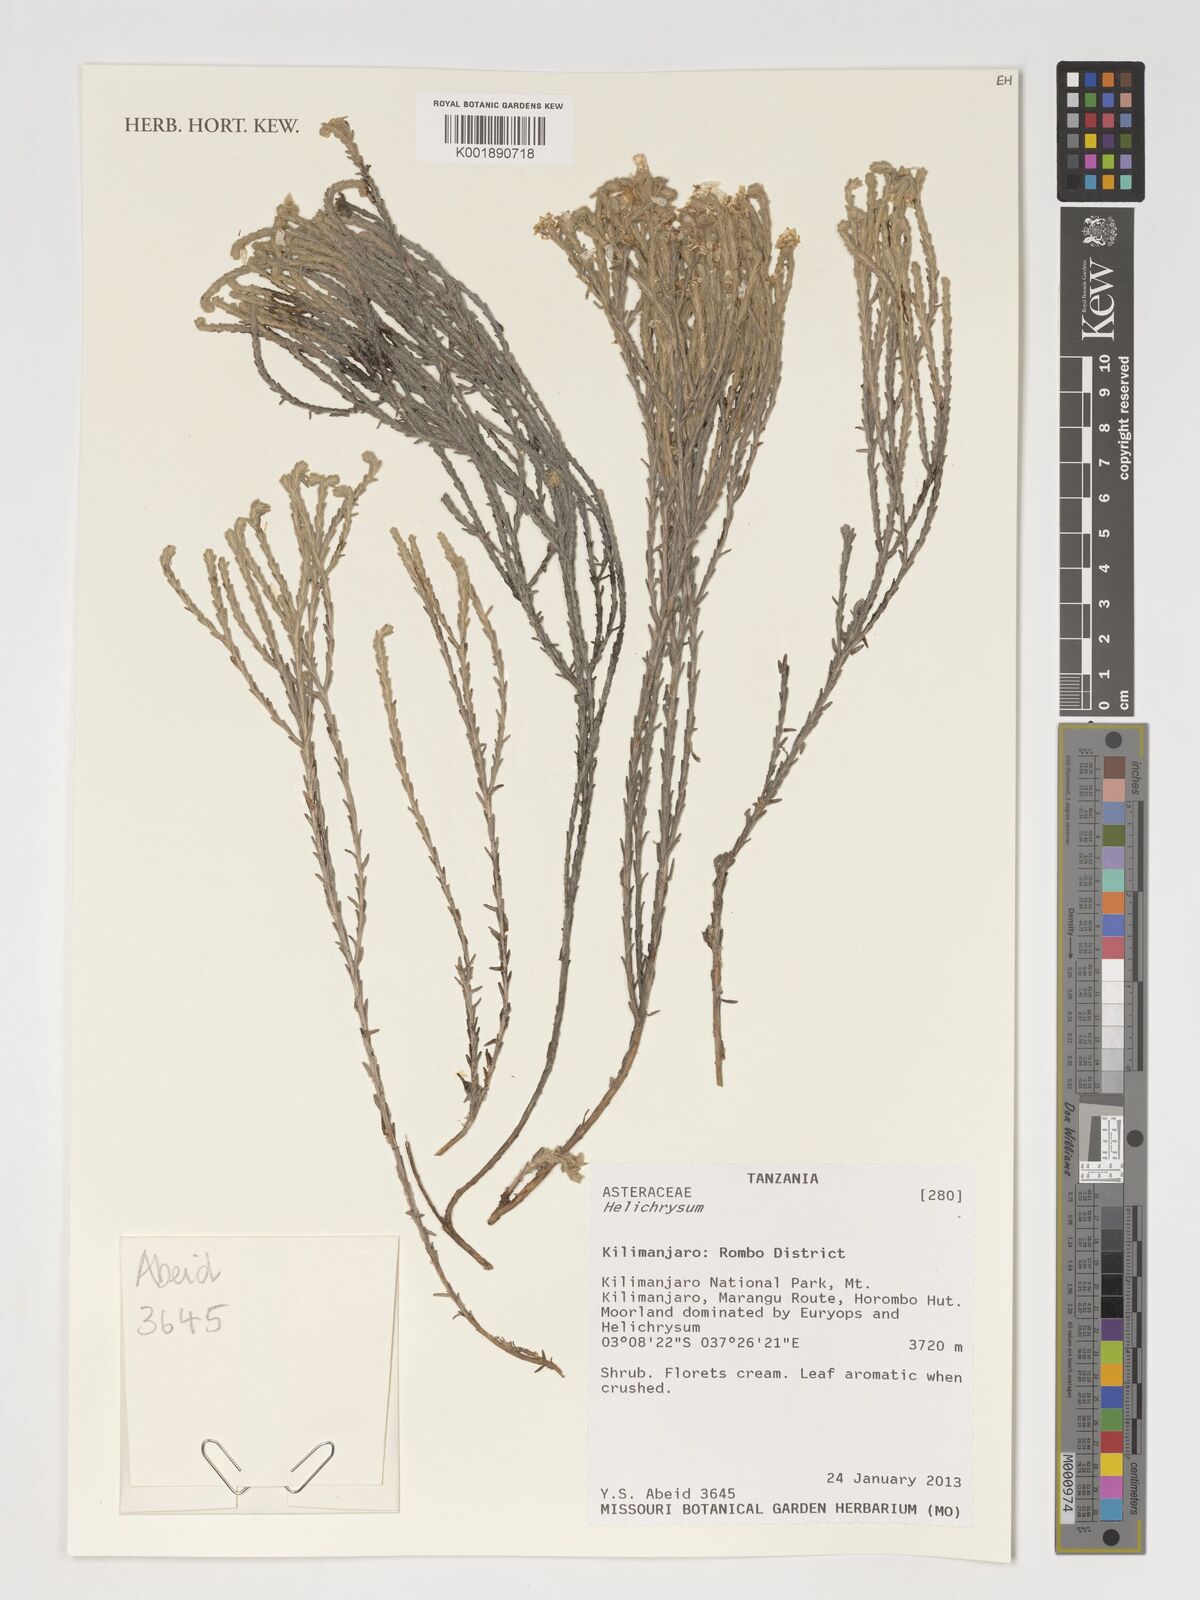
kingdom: Plantae
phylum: Tracheophyta
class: Magnoliopsida
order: Asterales
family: Asteraceae
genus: Helichrysum
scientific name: Helichrysum
